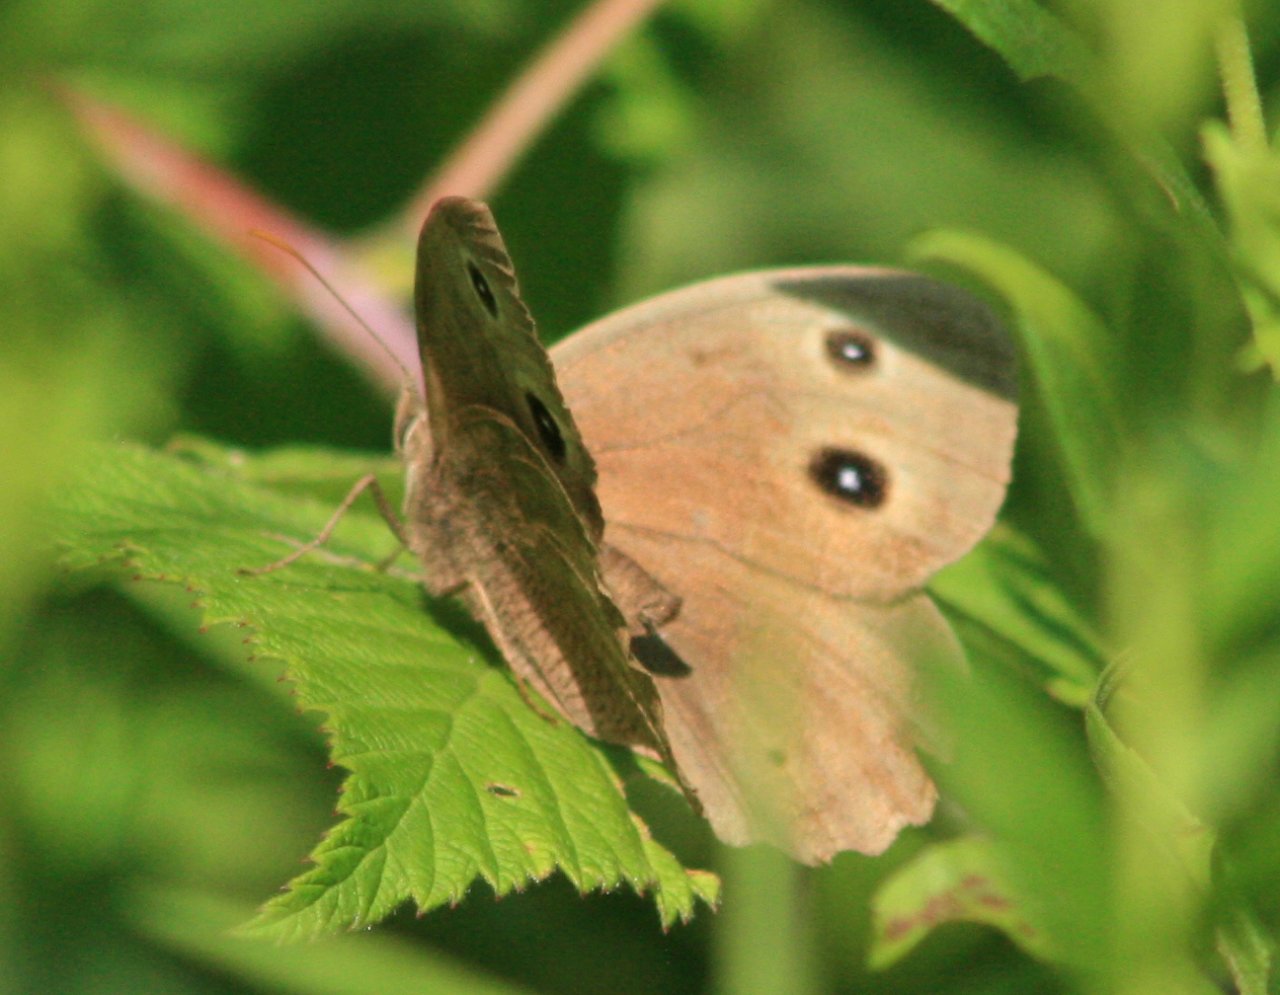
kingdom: Animalia
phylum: Arthropoda
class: Insecta
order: Lepidoptera
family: Nymphalidae
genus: Cercyonis
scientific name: Cercyonis pegala
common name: Common Wood-Nymph
